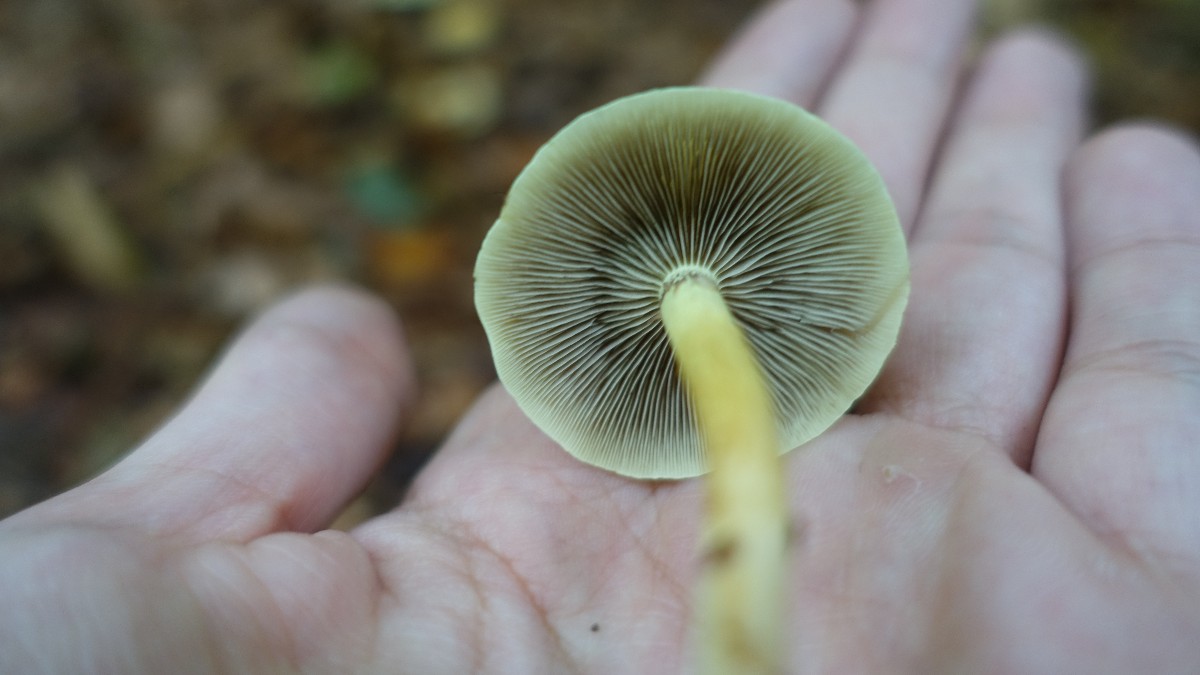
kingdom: Fungi
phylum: Basidiomycota
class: Agaricomycetes
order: Agaricales
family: Strophariaceae
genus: Hypholoma
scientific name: Hypholoma fasciculare
